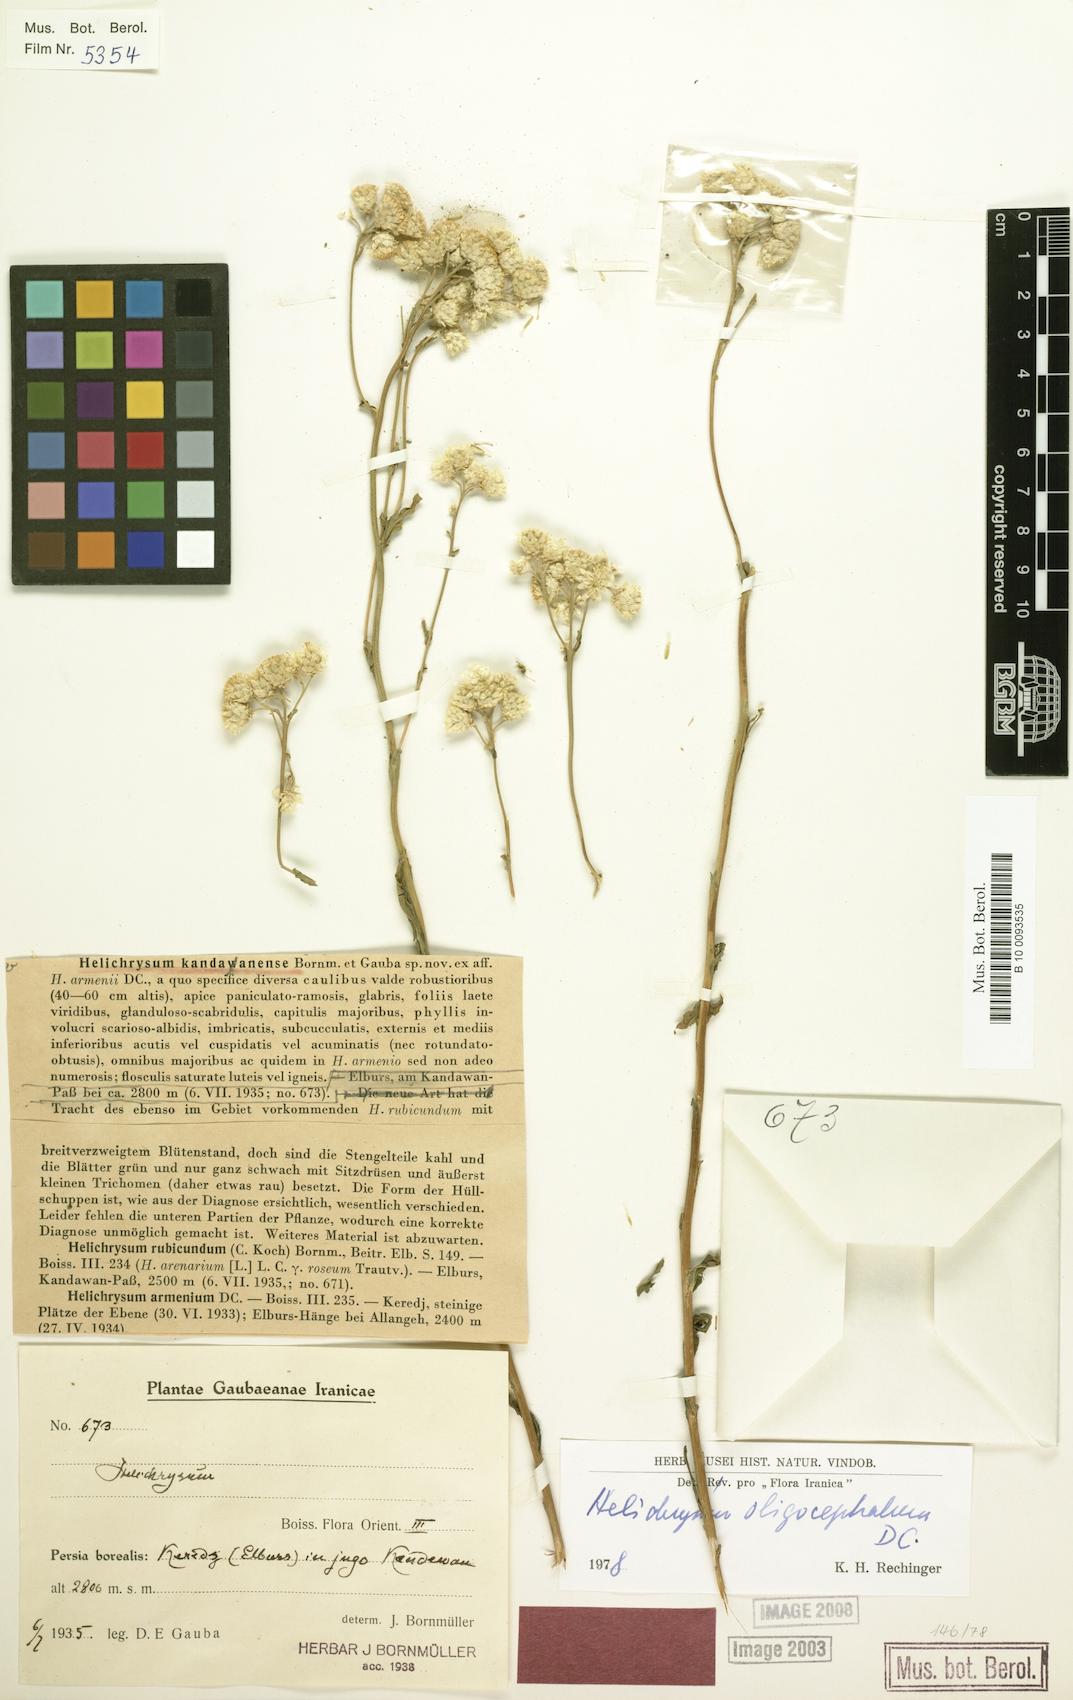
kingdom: Plantae
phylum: Tracheophyta
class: Magnoliopsida
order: Asterales
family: Asteraceae
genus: Helichrysum
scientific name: Helichrysum oligocephalum
